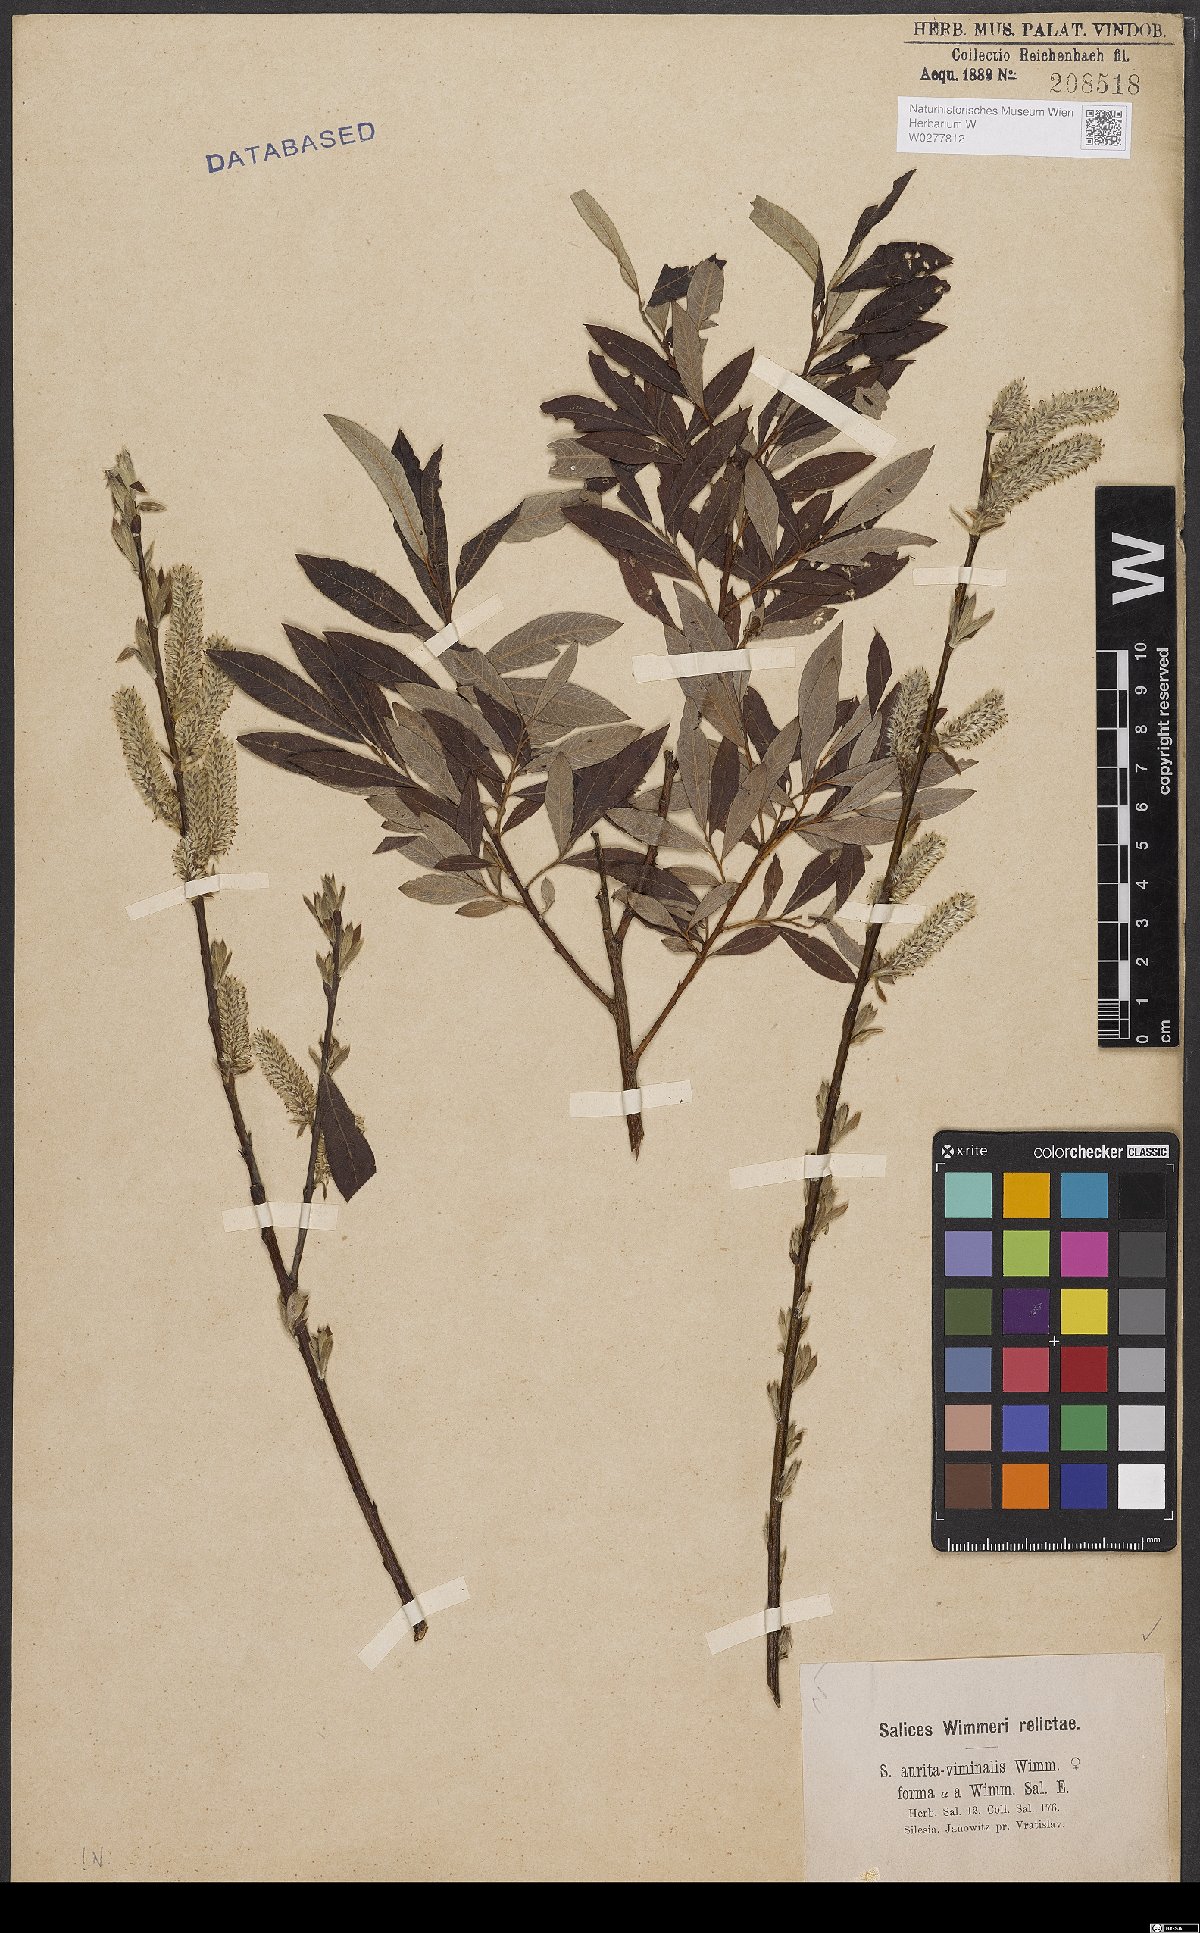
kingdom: Plantae
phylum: Tracheophyta
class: Magnoliopsida
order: Malpighiales
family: Salicaceae
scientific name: Salicaceae
